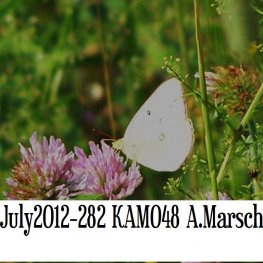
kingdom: Animalia
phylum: Arthropoda
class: Insecta
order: Lepidoptera
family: Pieridae
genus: Colias
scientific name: Colias philodice
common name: Clouded Sulphur
